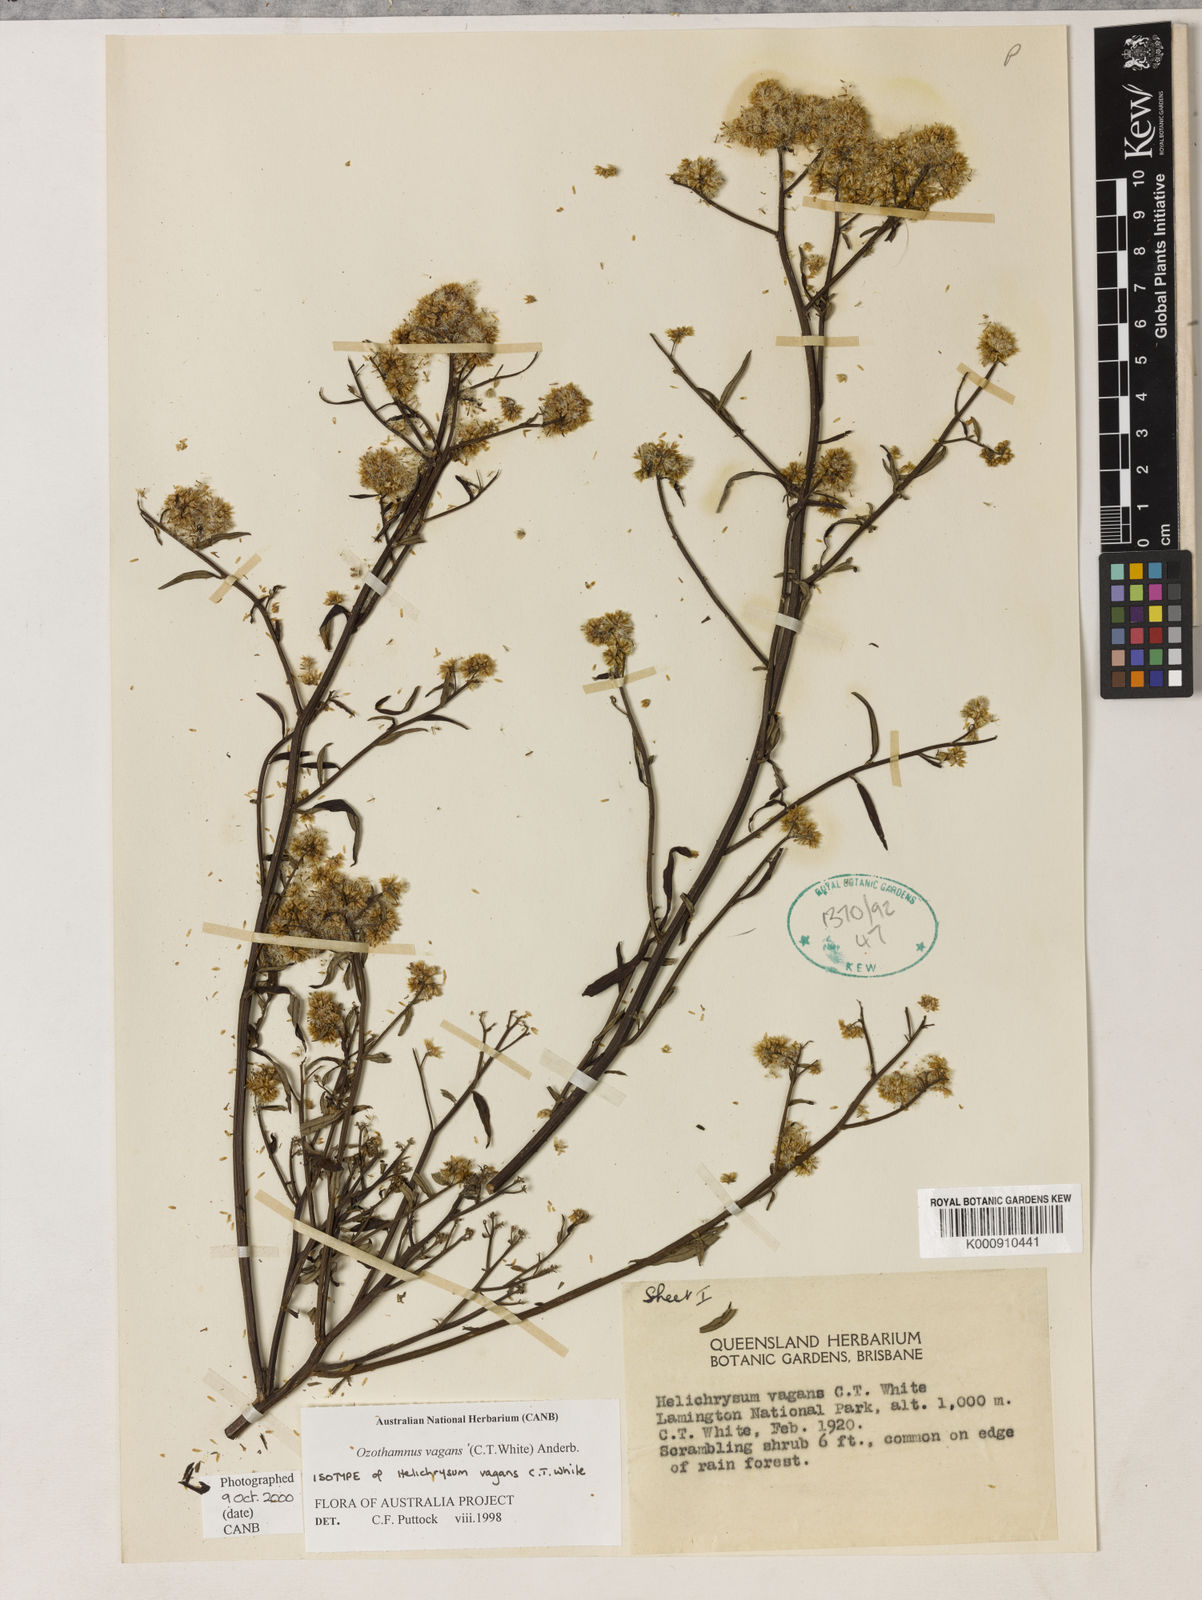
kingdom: Plantae
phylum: Tracheophyta
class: Magnoliopsida
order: Asterales
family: Asteraceae
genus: Ozothamnus
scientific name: Ozothamnus vagans
